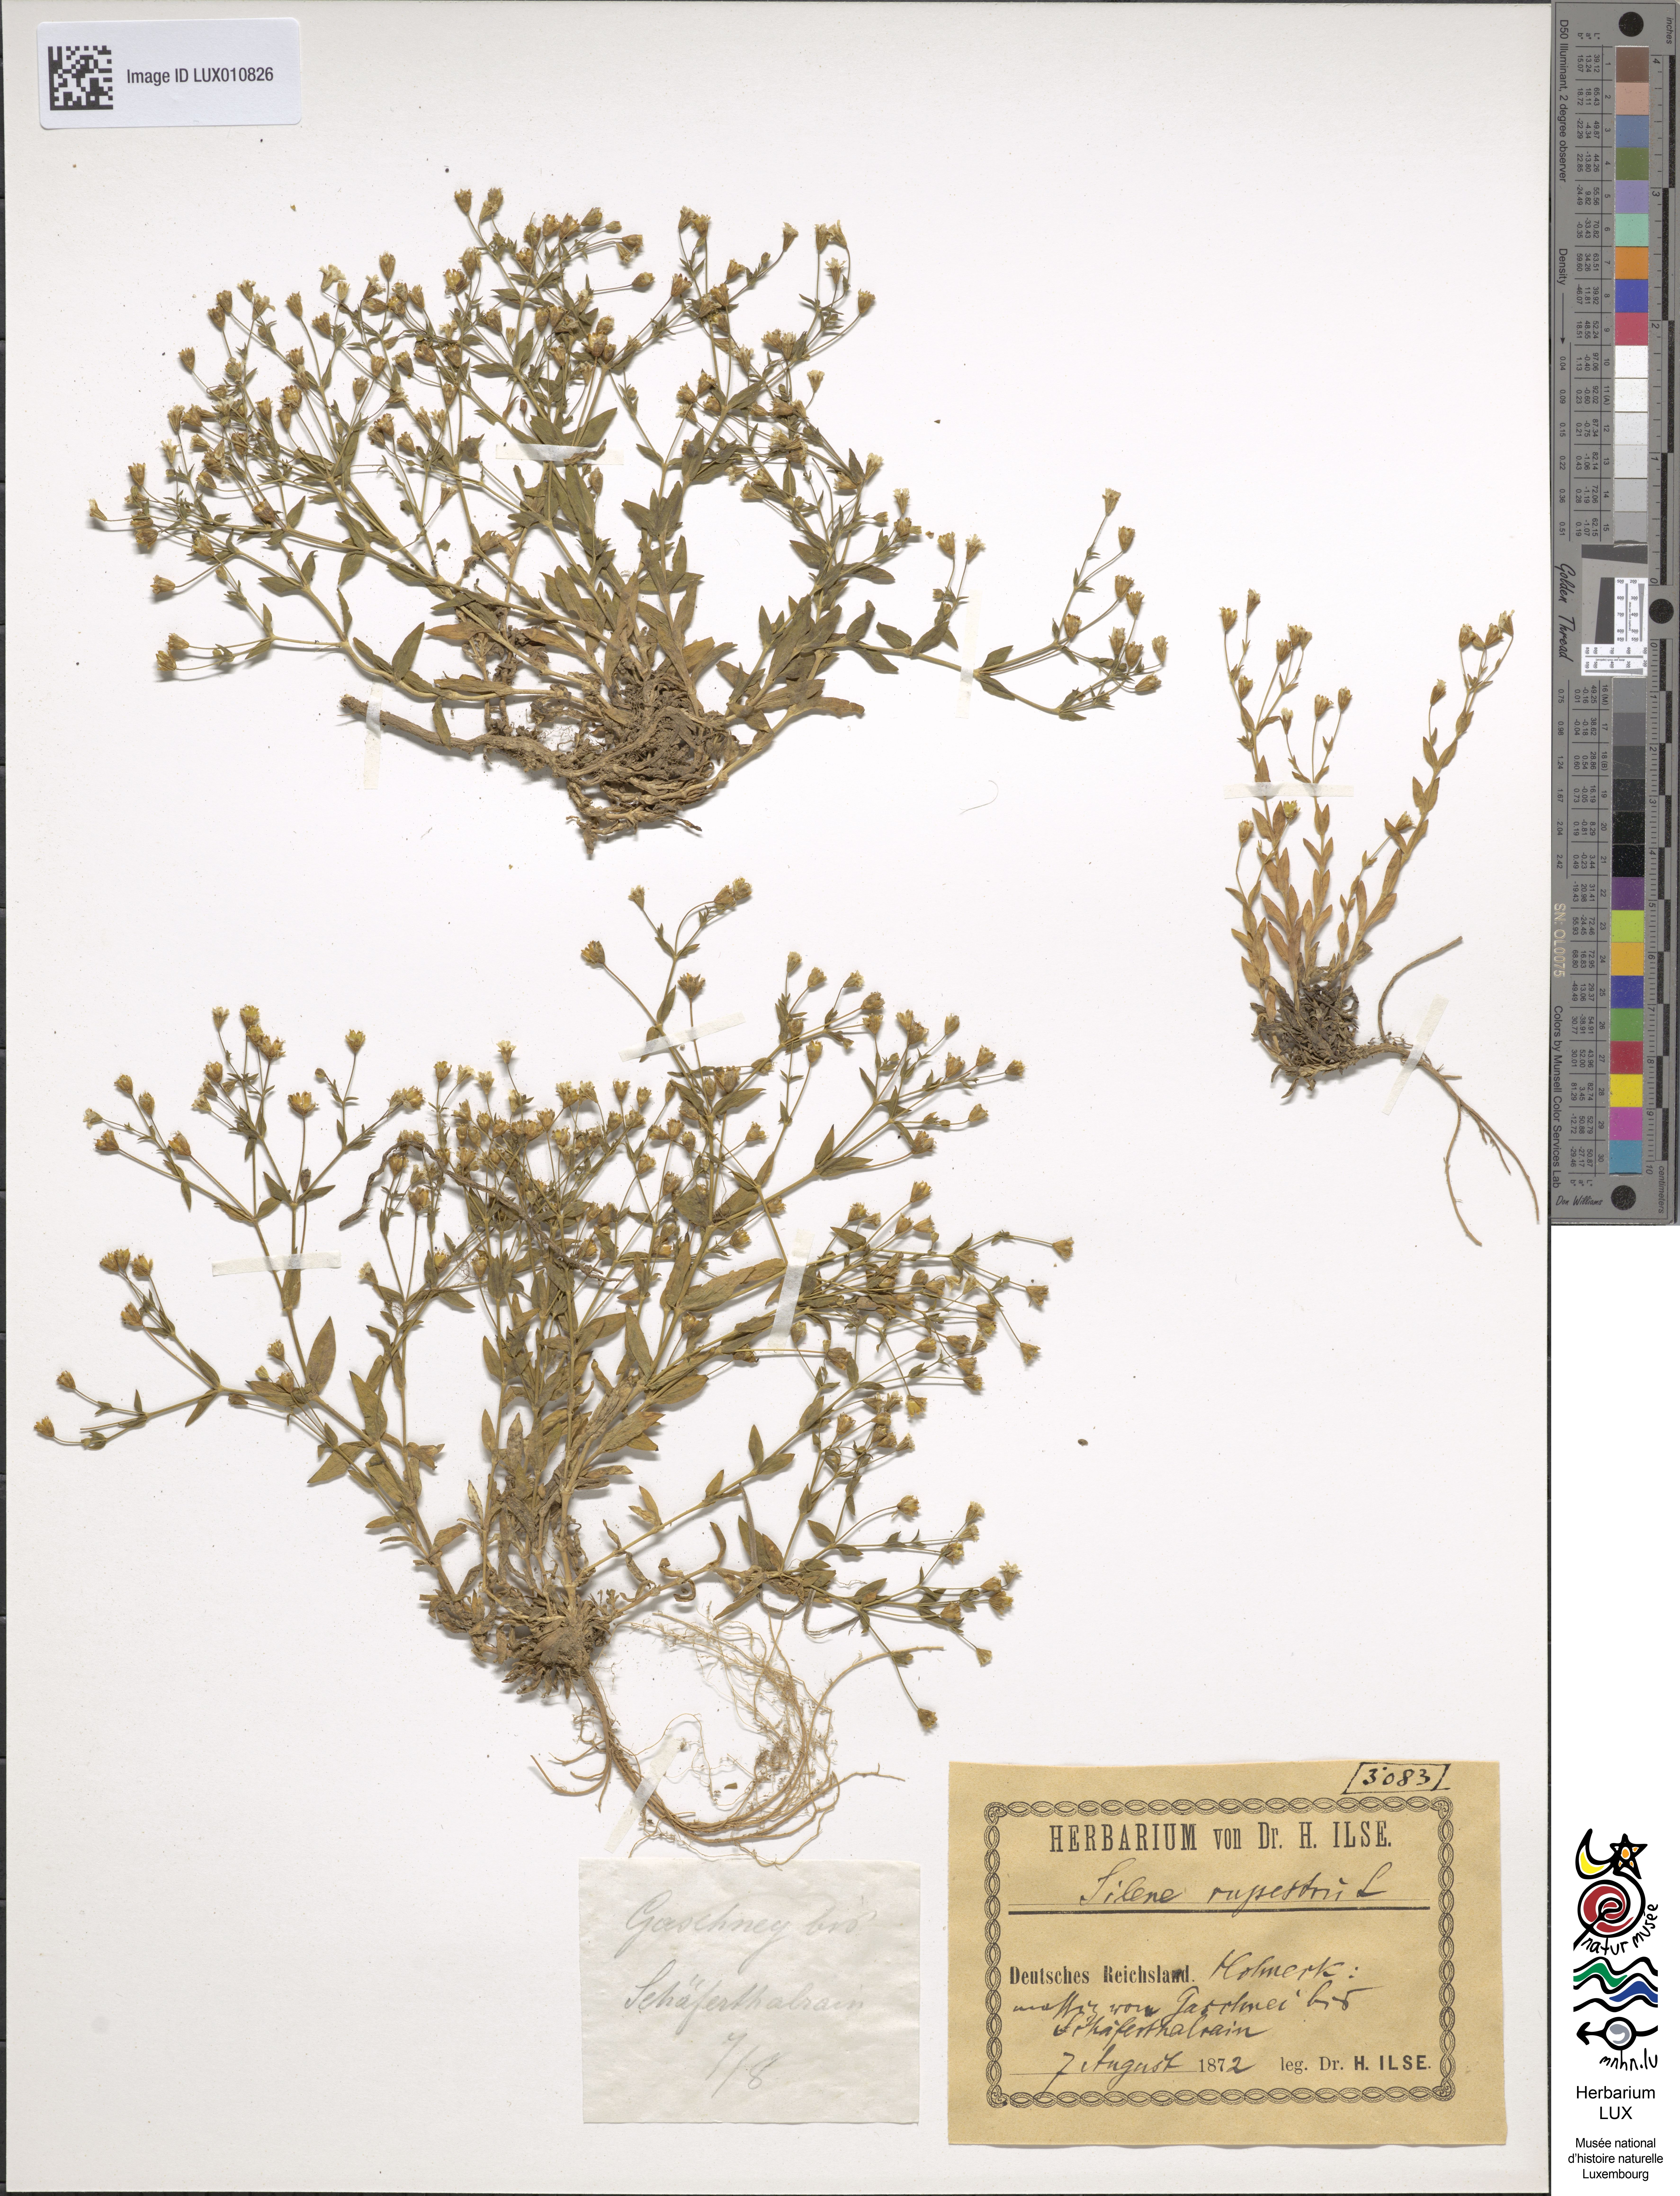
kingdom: Plantae
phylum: Tracheophyta
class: Magnoliopsida
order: Caryophyllales
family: Caryophyllaceae
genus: Atocion
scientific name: Atocion rupestre
